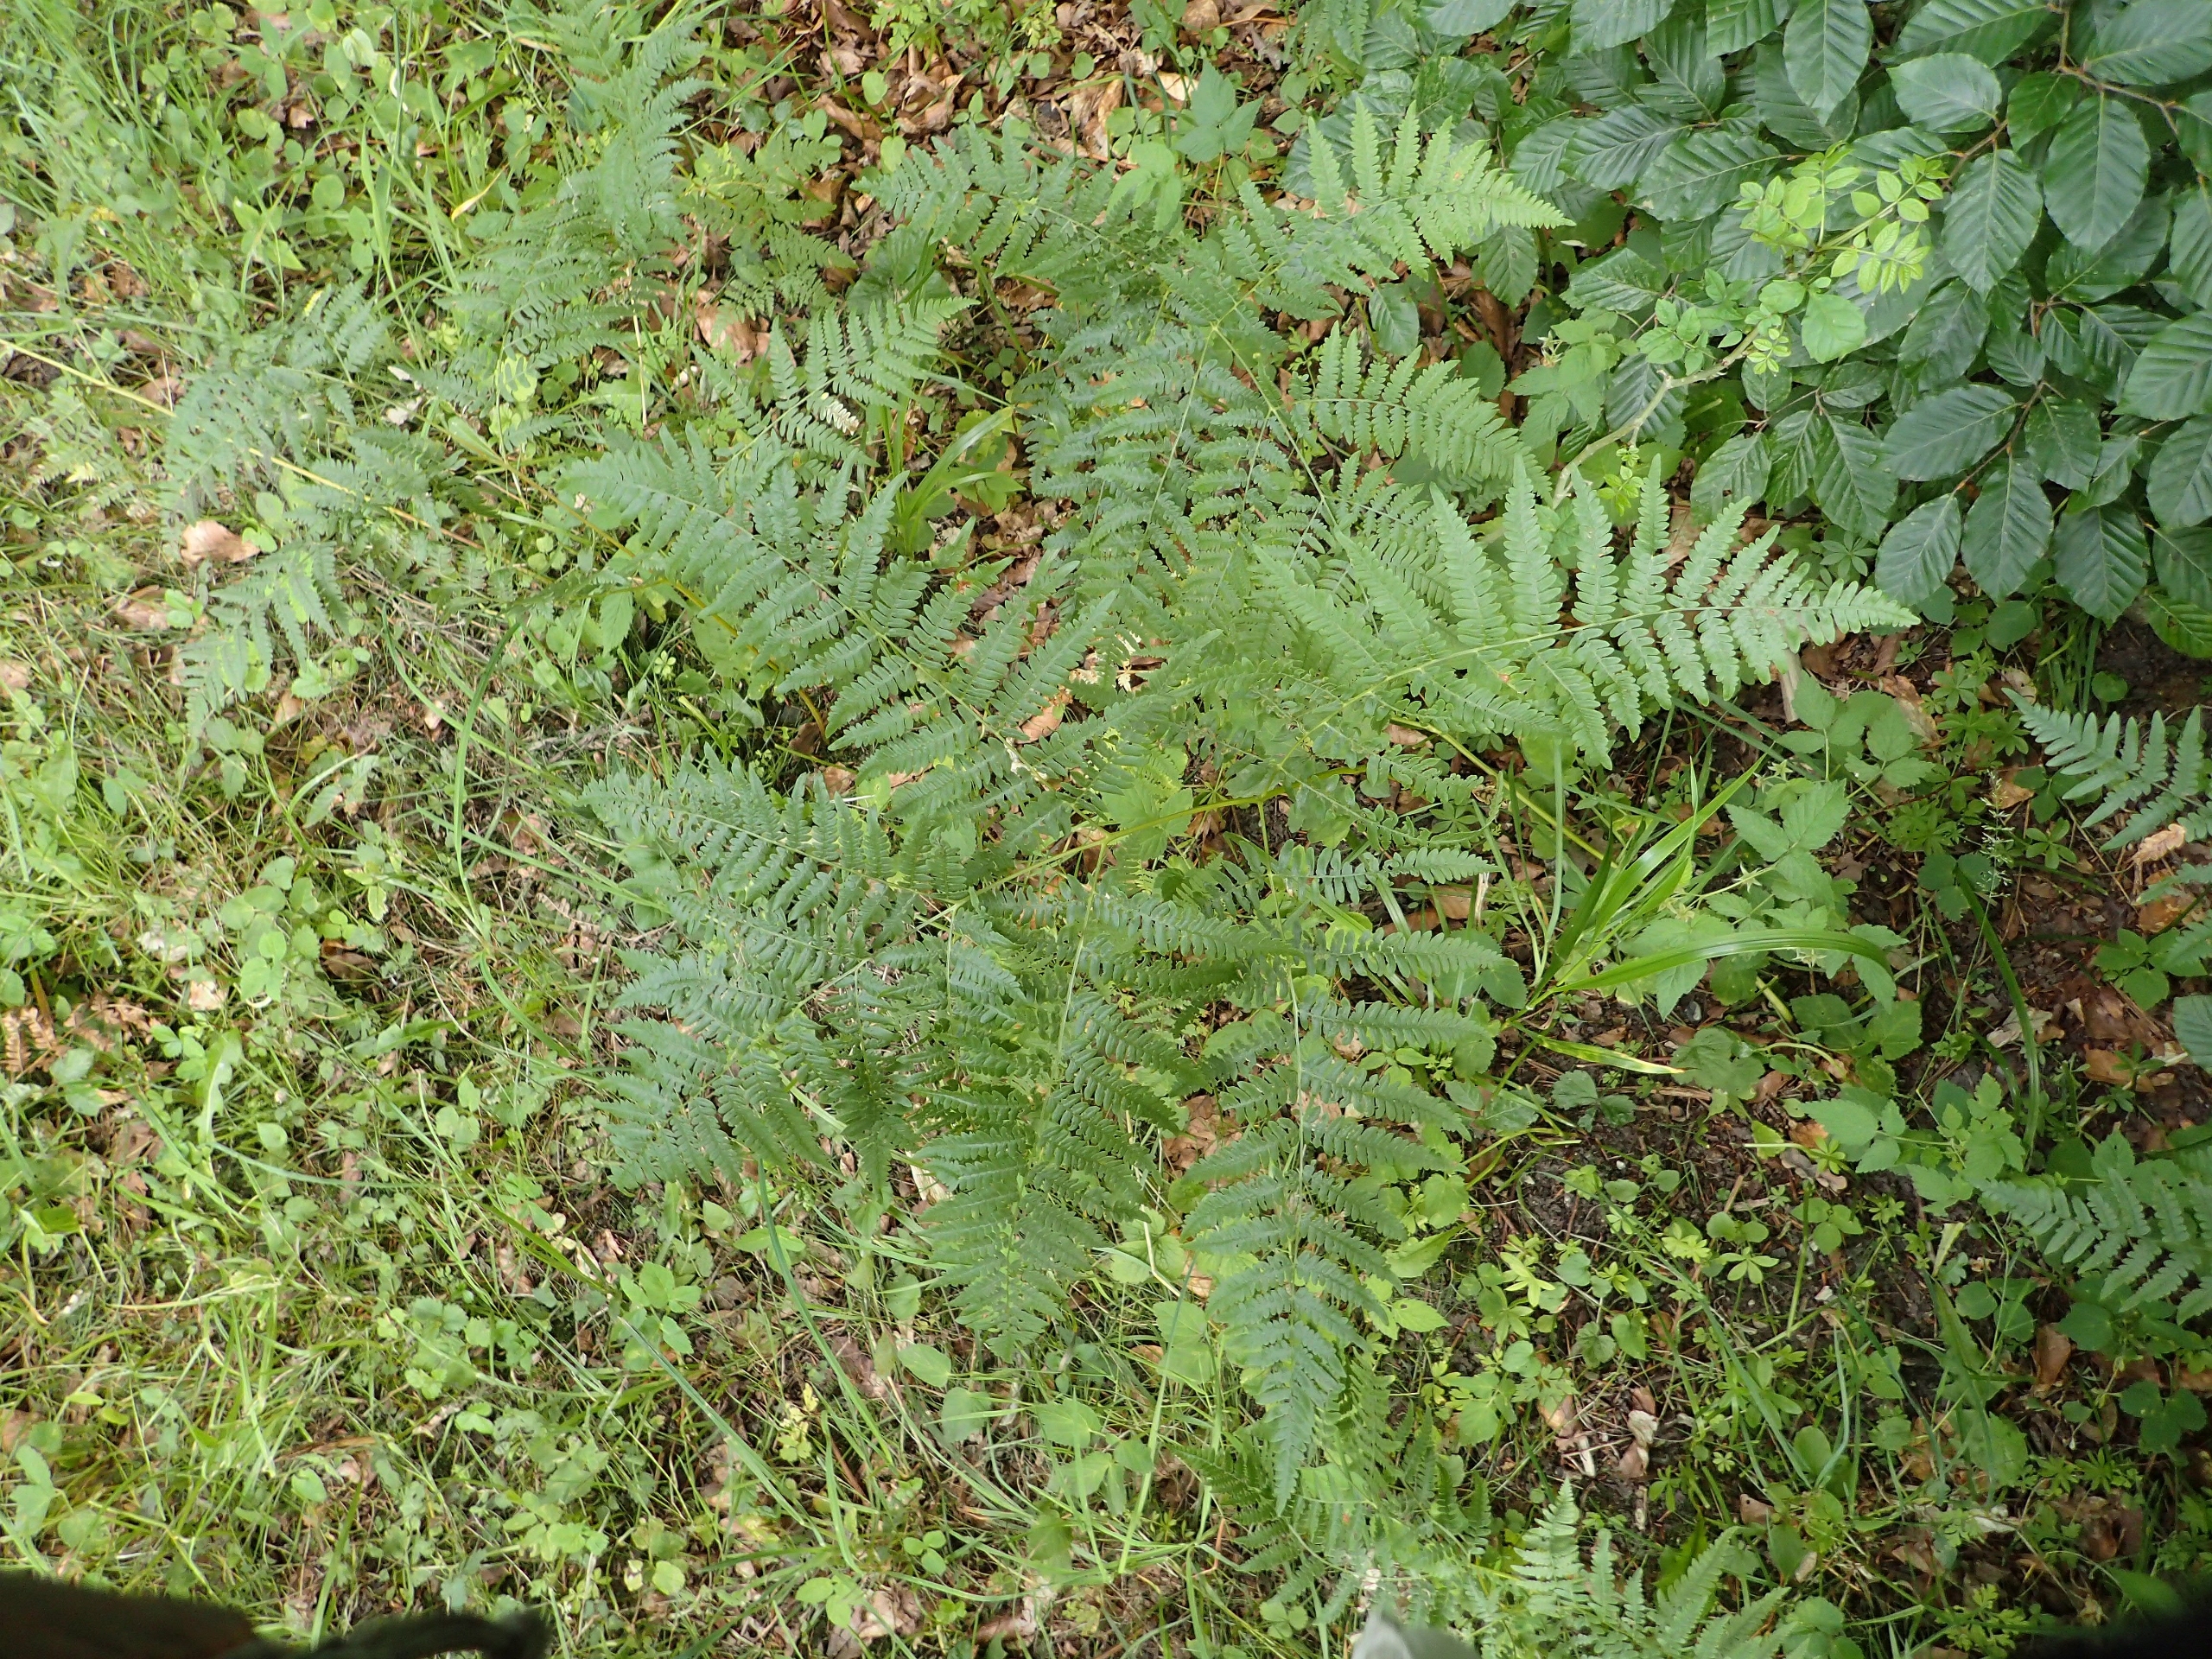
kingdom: Plantae
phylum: Tracheophyta
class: Polypodiopsida
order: Polypodiales
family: Dennstaedtiaceae
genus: Pteridium
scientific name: Pteridium aquilinum
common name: Ørnebregne
